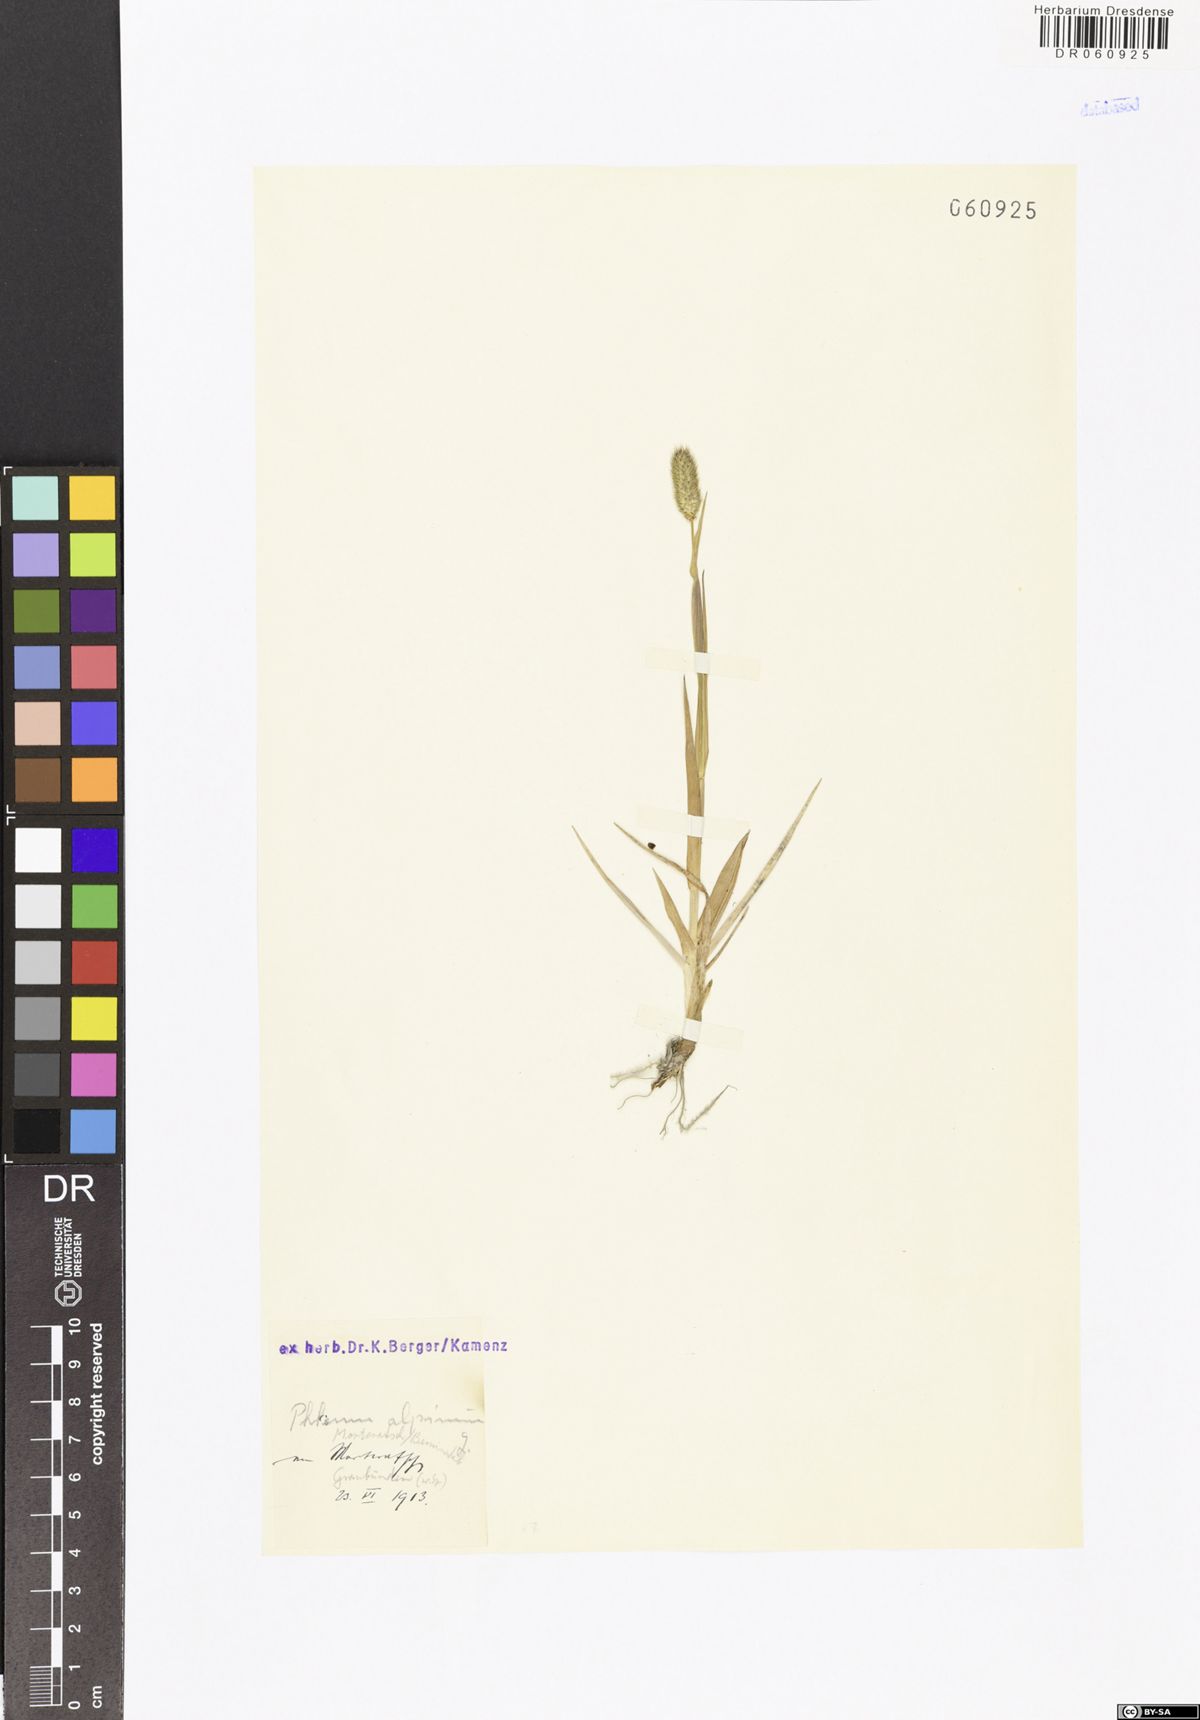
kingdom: Plantae
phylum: Tracheophyta
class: Liliopsida
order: Poales
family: Poaceae
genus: Phleum
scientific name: Phleum alpinum
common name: Alpine cat's-tail
